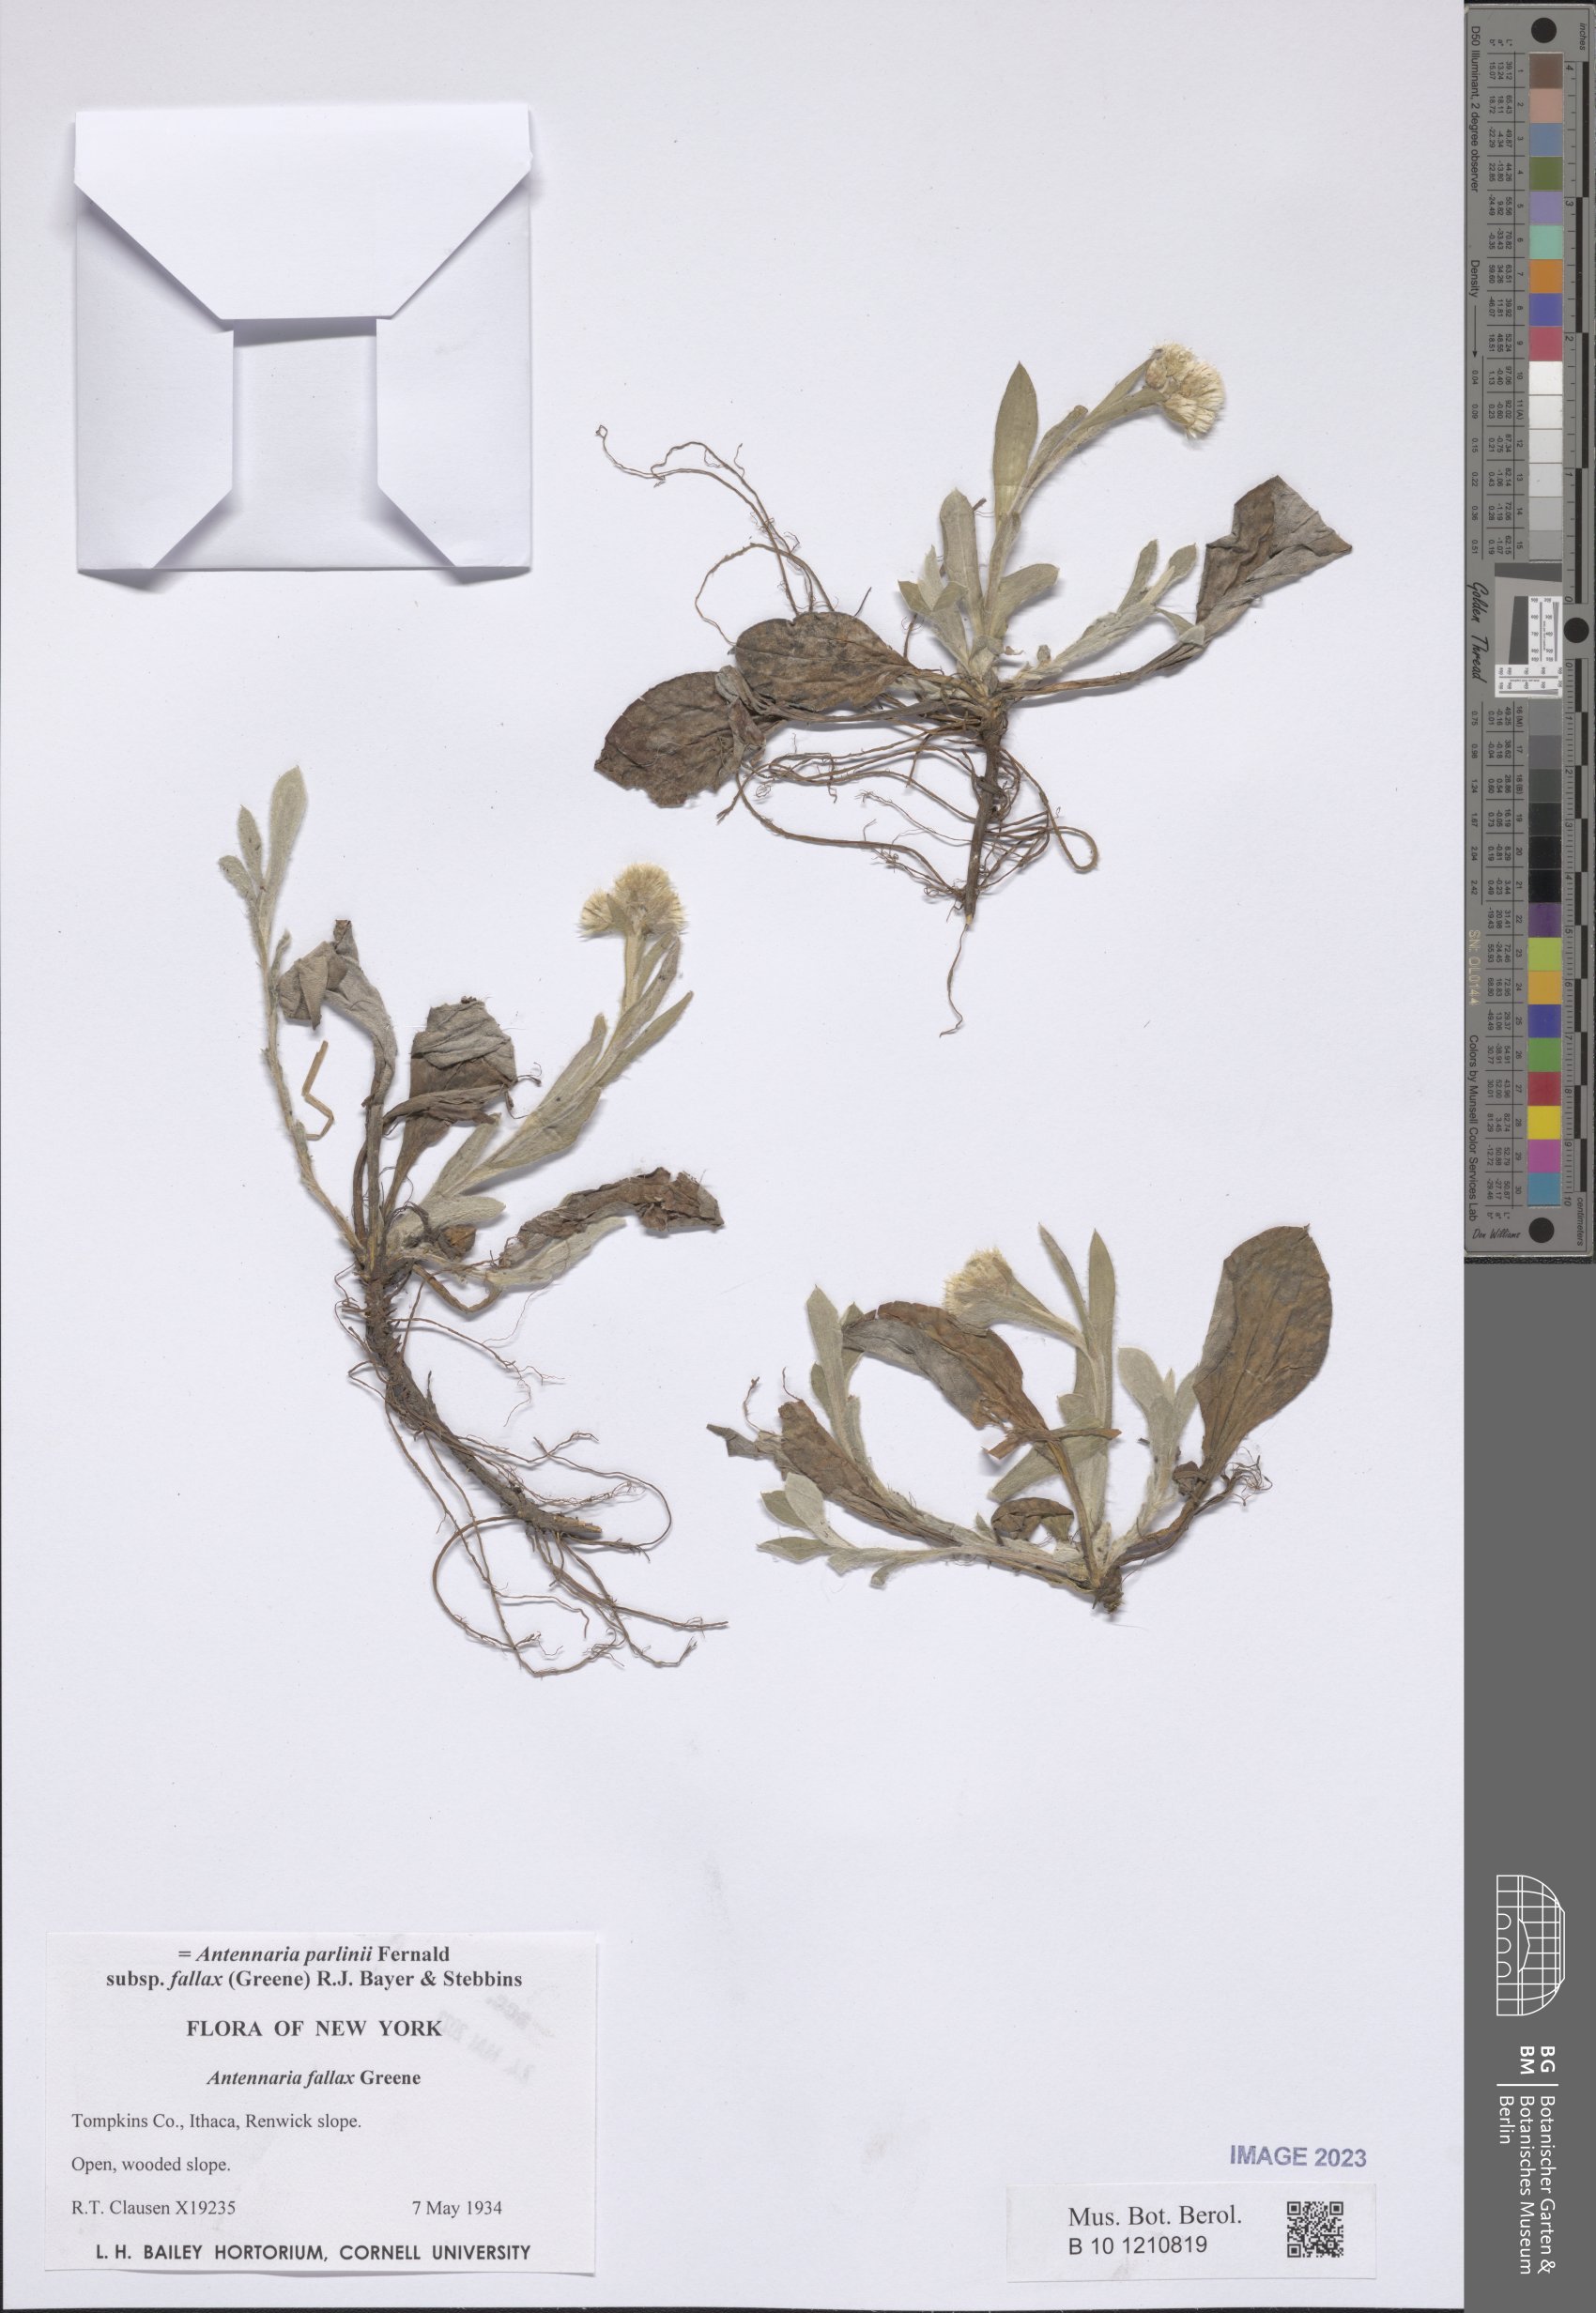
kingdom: Plantae
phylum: Tracheophyta
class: Magnoliopsida
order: Asterales
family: Asteraceae
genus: Antennaria
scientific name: Antennaria parlinii
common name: Parlin's pussytoes
